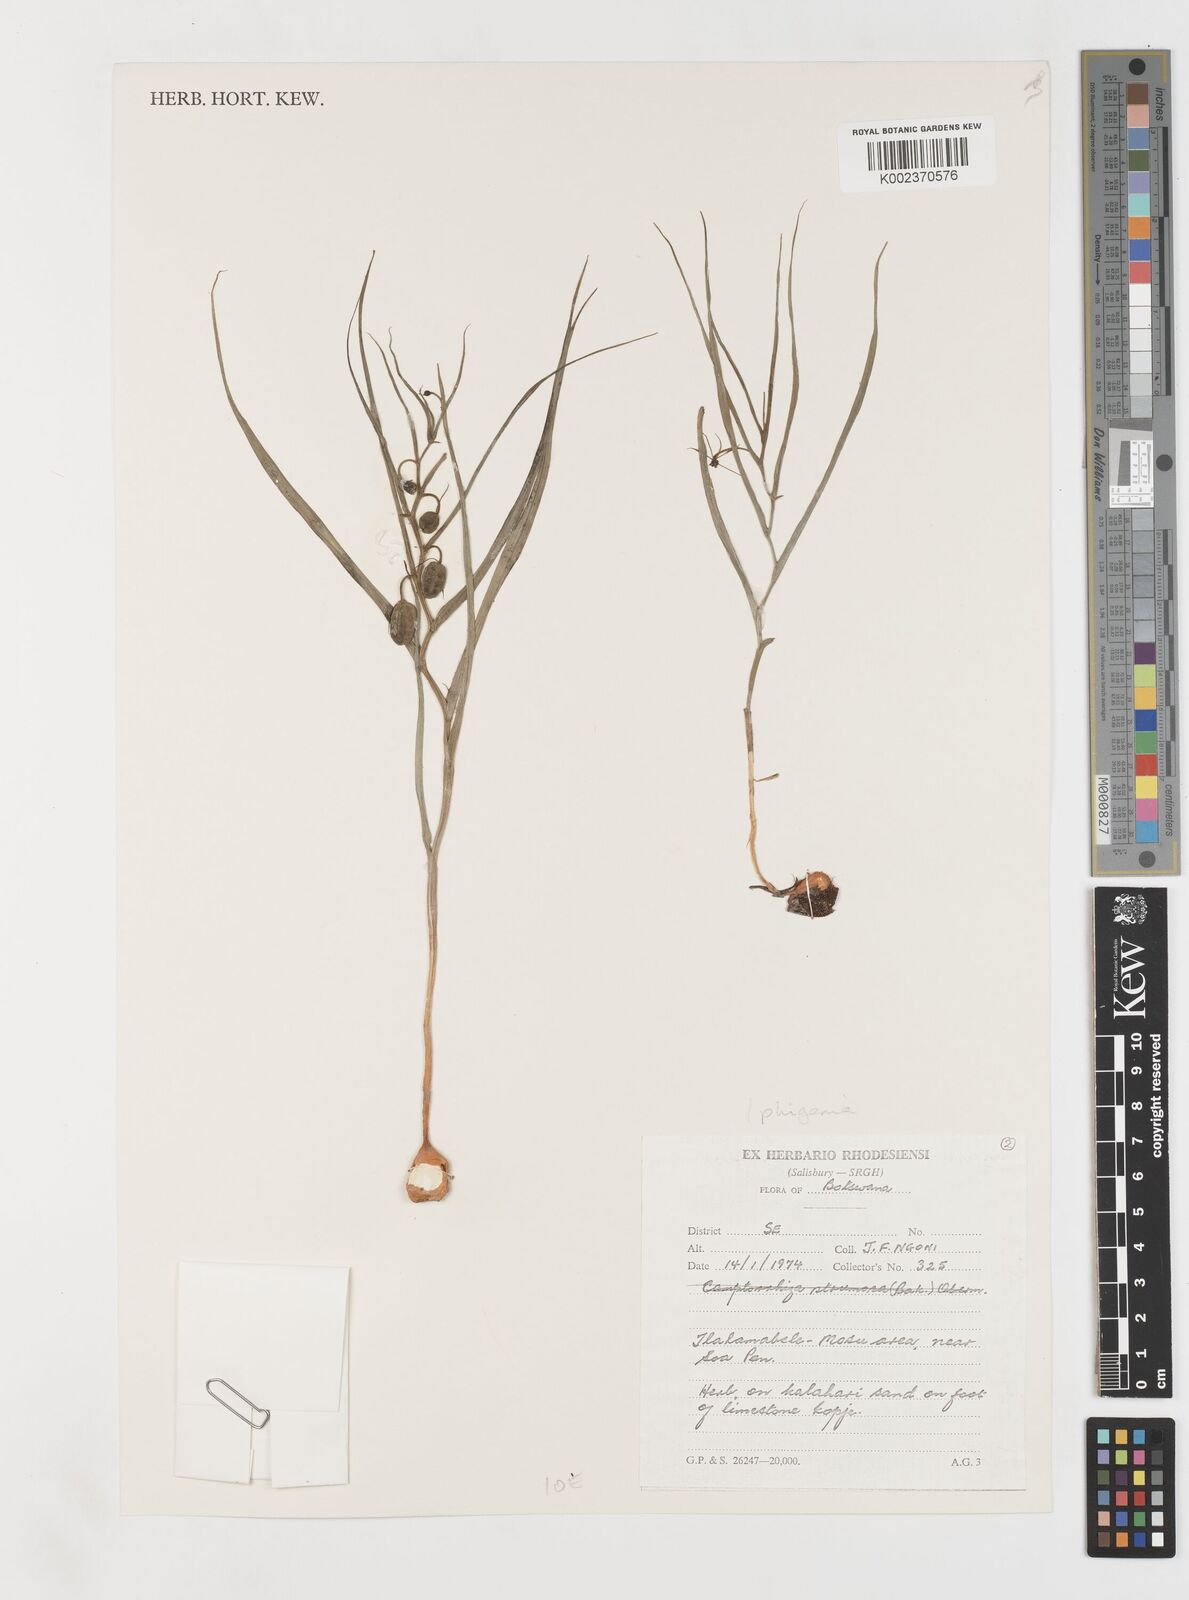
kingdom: Plantae
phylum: Tracheophyta
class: Liliopsida
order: Liliales
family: Colchicaceae
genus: Iphigenia
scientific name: Iphigenia oliveri
